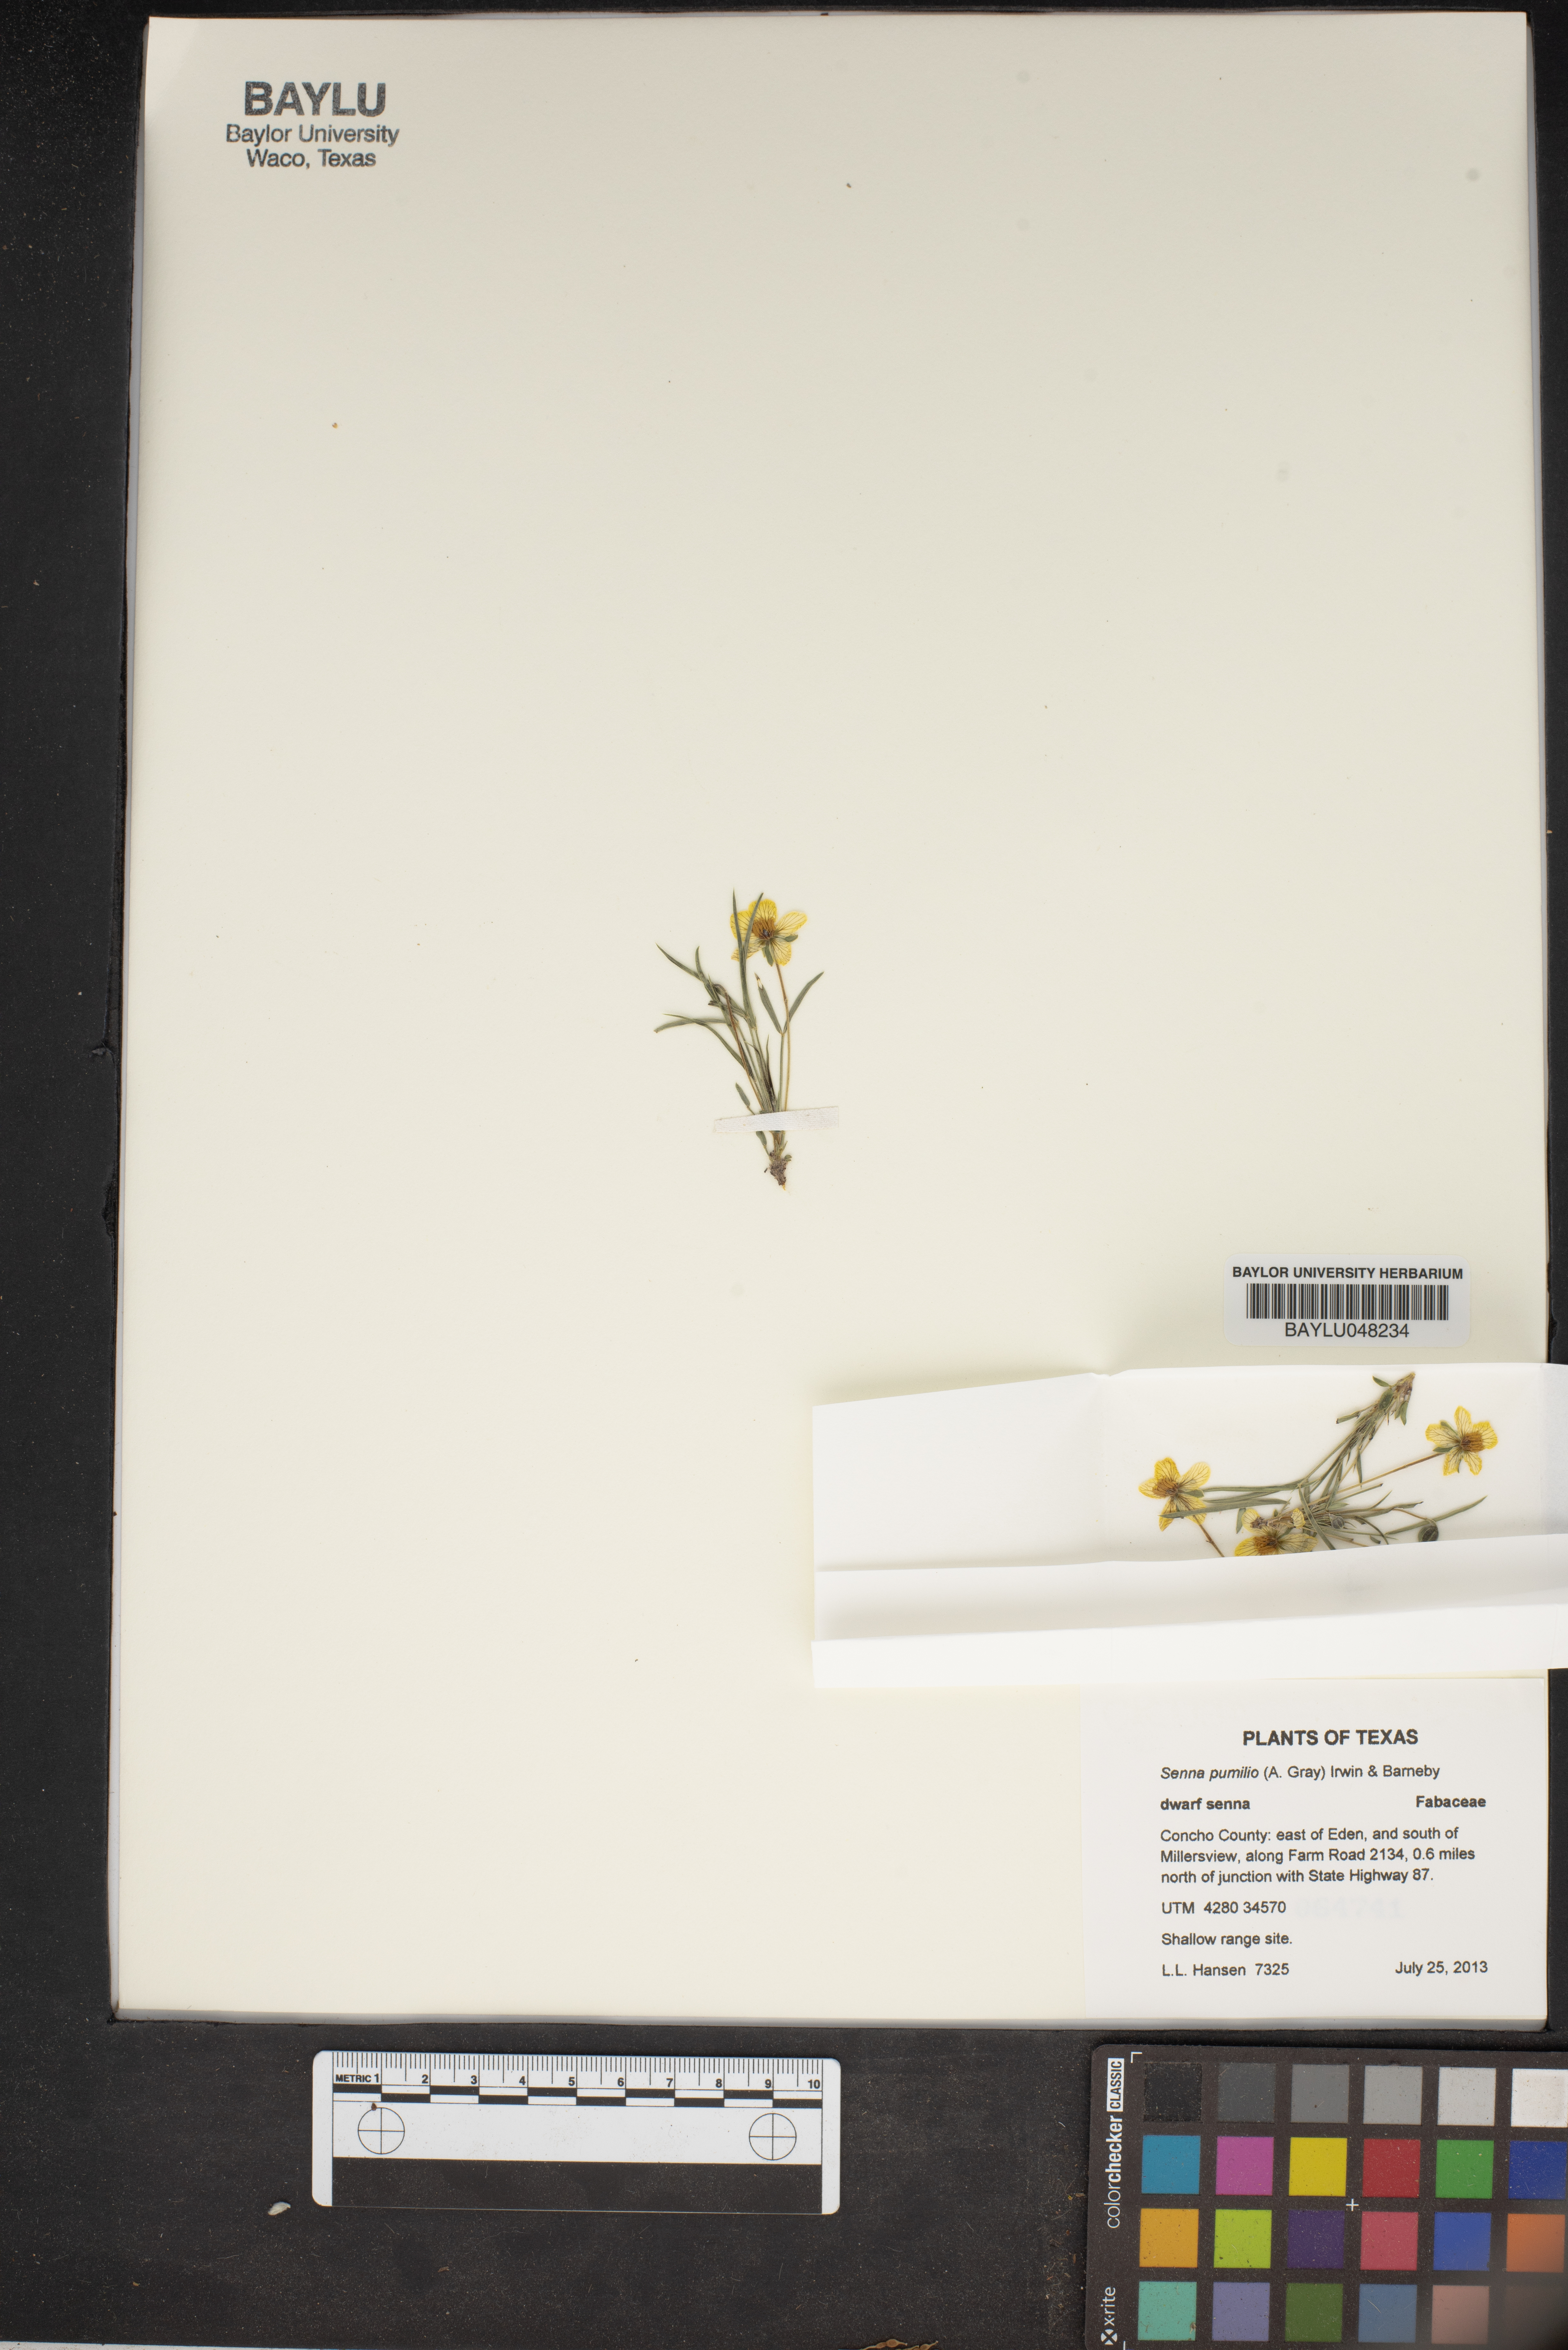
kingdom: Plantae
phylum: Tracheophyta
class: Magnoliopsida
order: Fabales
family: Fabaceae
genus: Senna
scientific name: Senna pumilio
